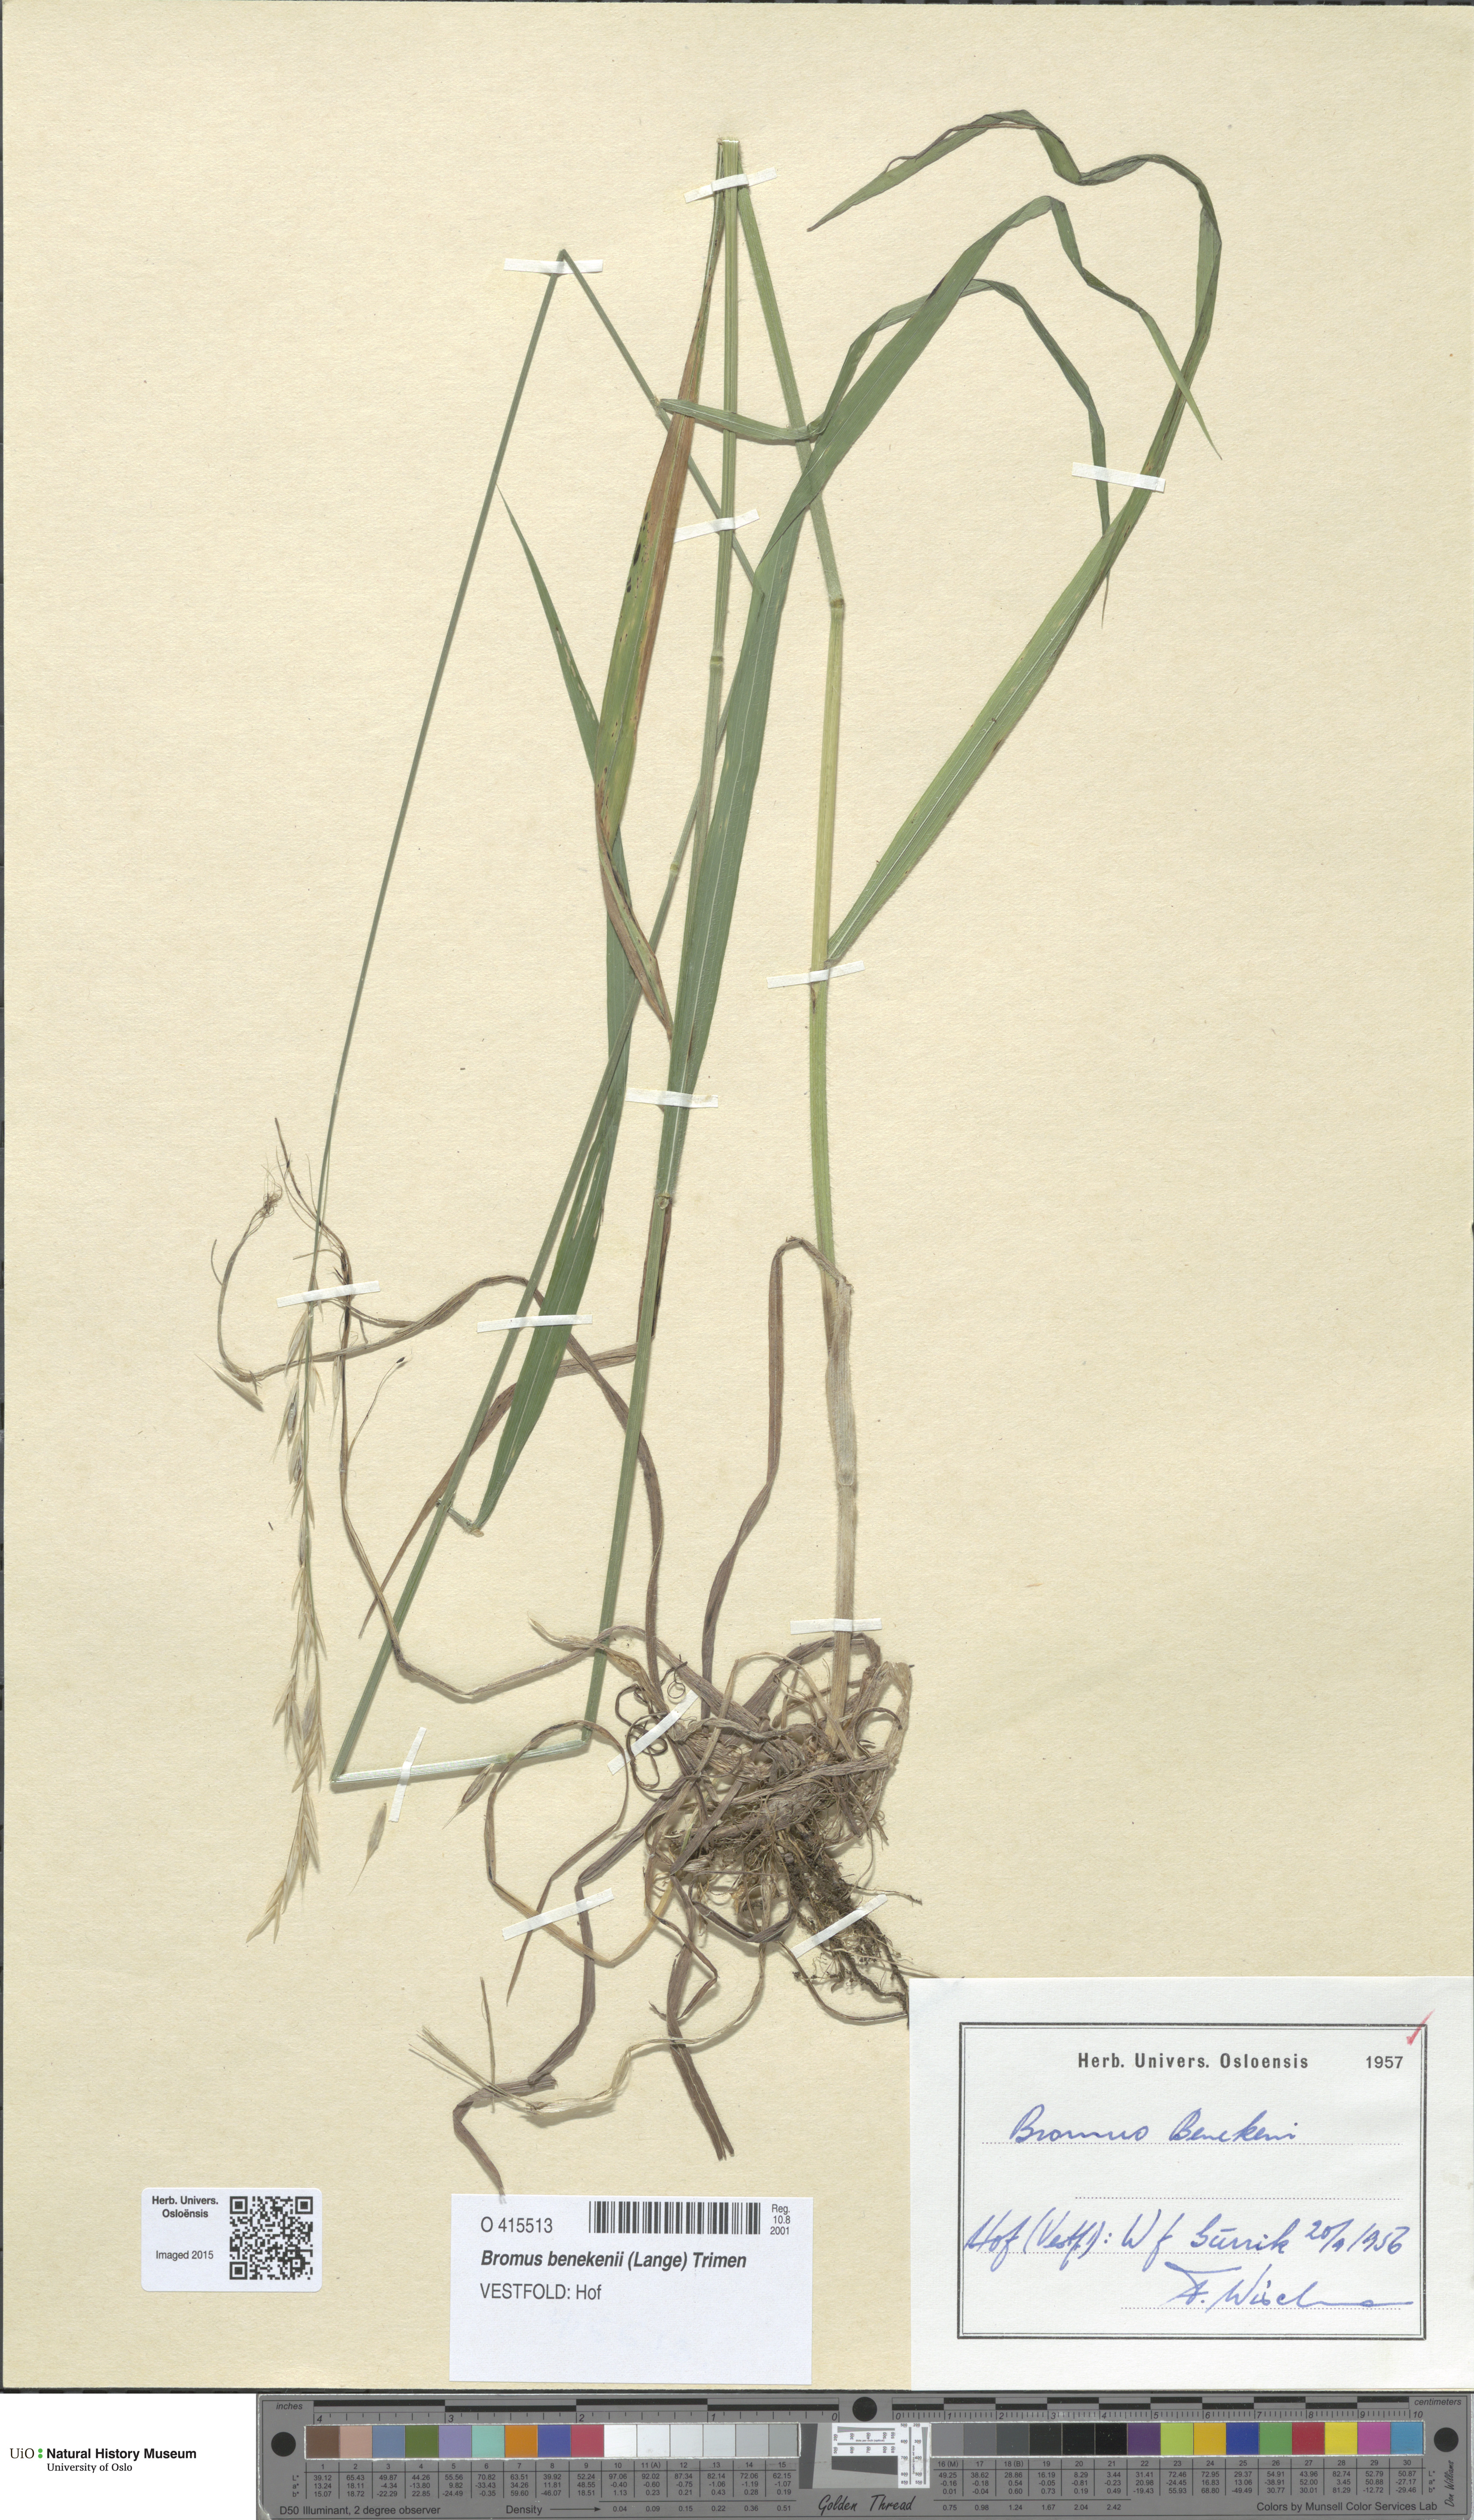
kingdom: Plantae
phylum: Tracheophyta
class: Liliopsida
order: Poales
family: Poaceae
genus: Bromus
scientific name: Bromus benekenii
